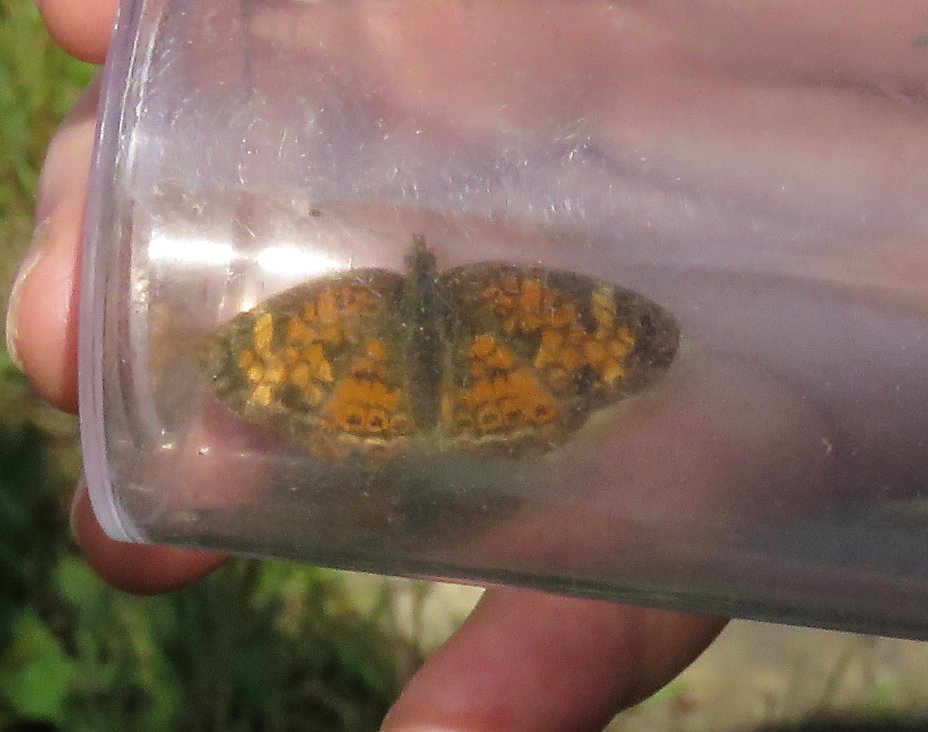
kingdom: Animalia
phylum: Arthropoda
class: Insecta
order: Lepidoptera
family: Nymphalidae
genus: Phyciodes
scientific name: Phyciodes tharos
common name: Pearl Crescent
